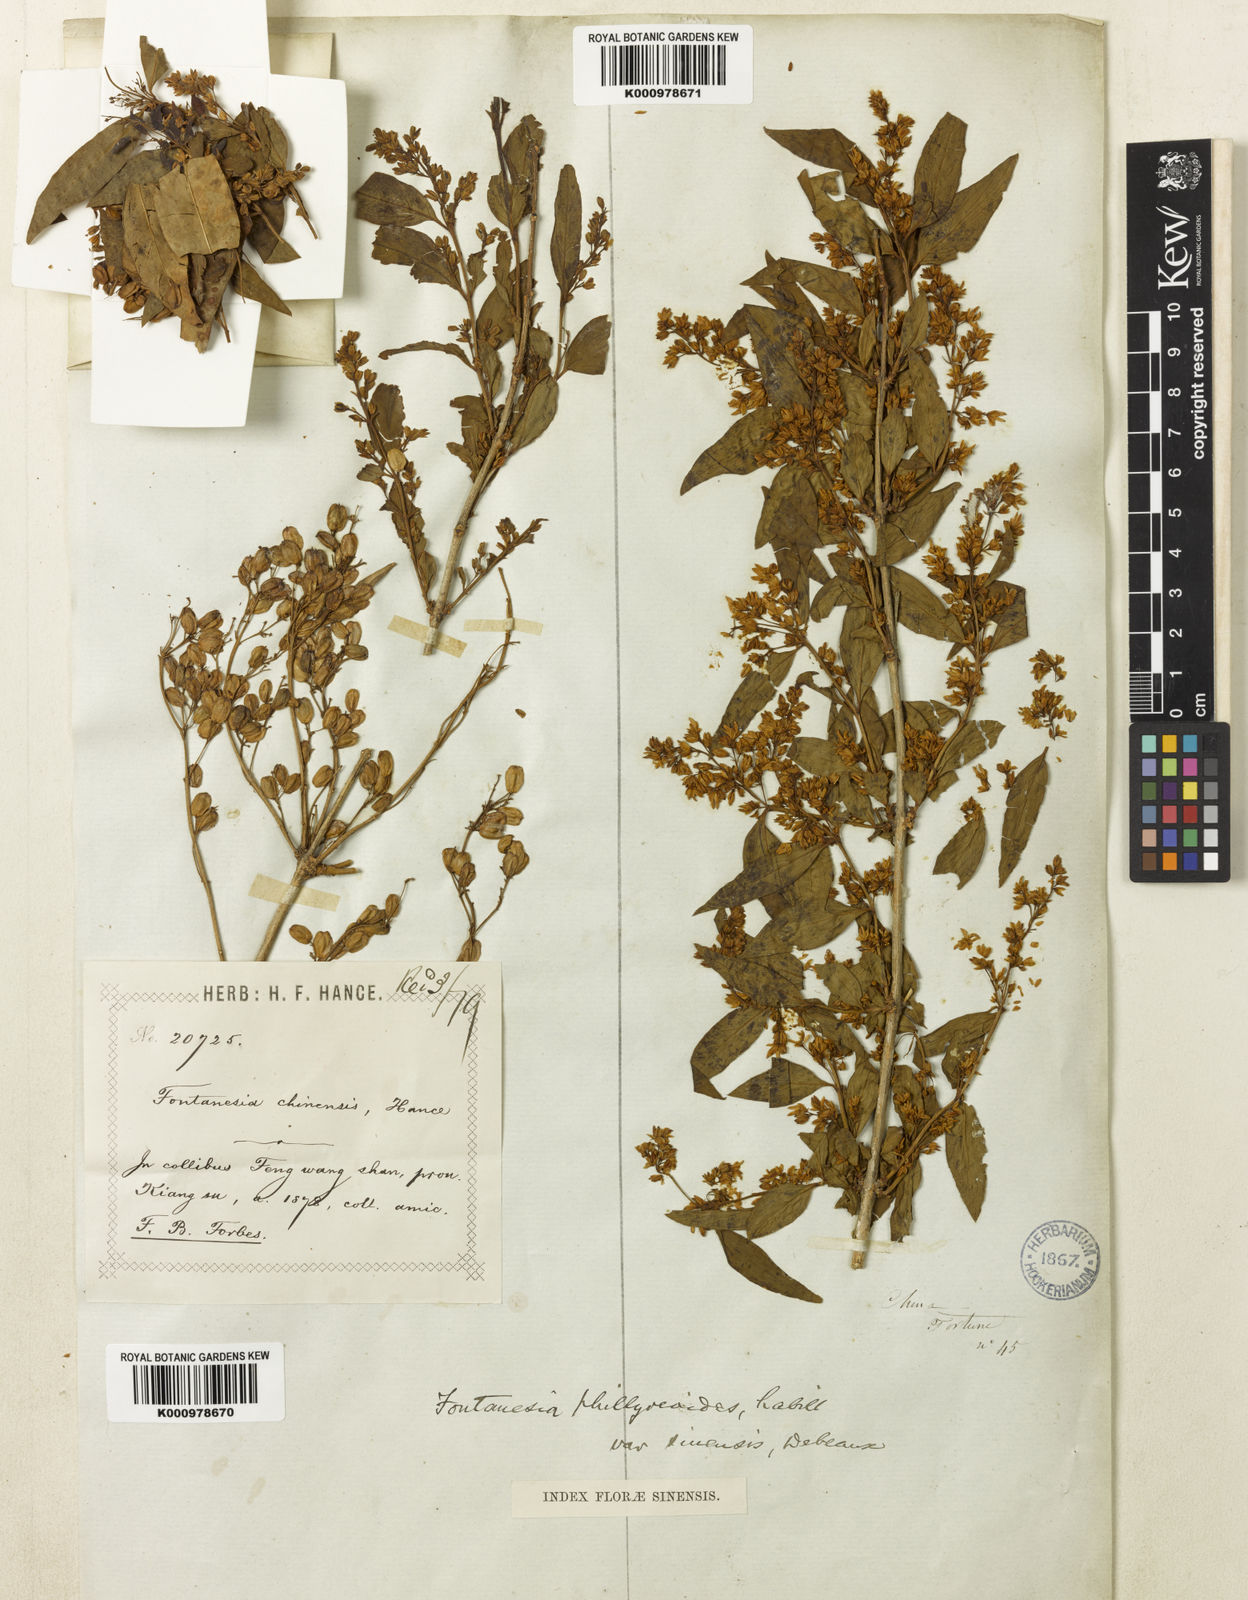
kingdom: Plantae
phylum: Tracheophyta
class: Magnoliopsida
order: Lamiales
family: Oleaceae
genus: Fontanesia
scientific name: Fontanesia fortunei
